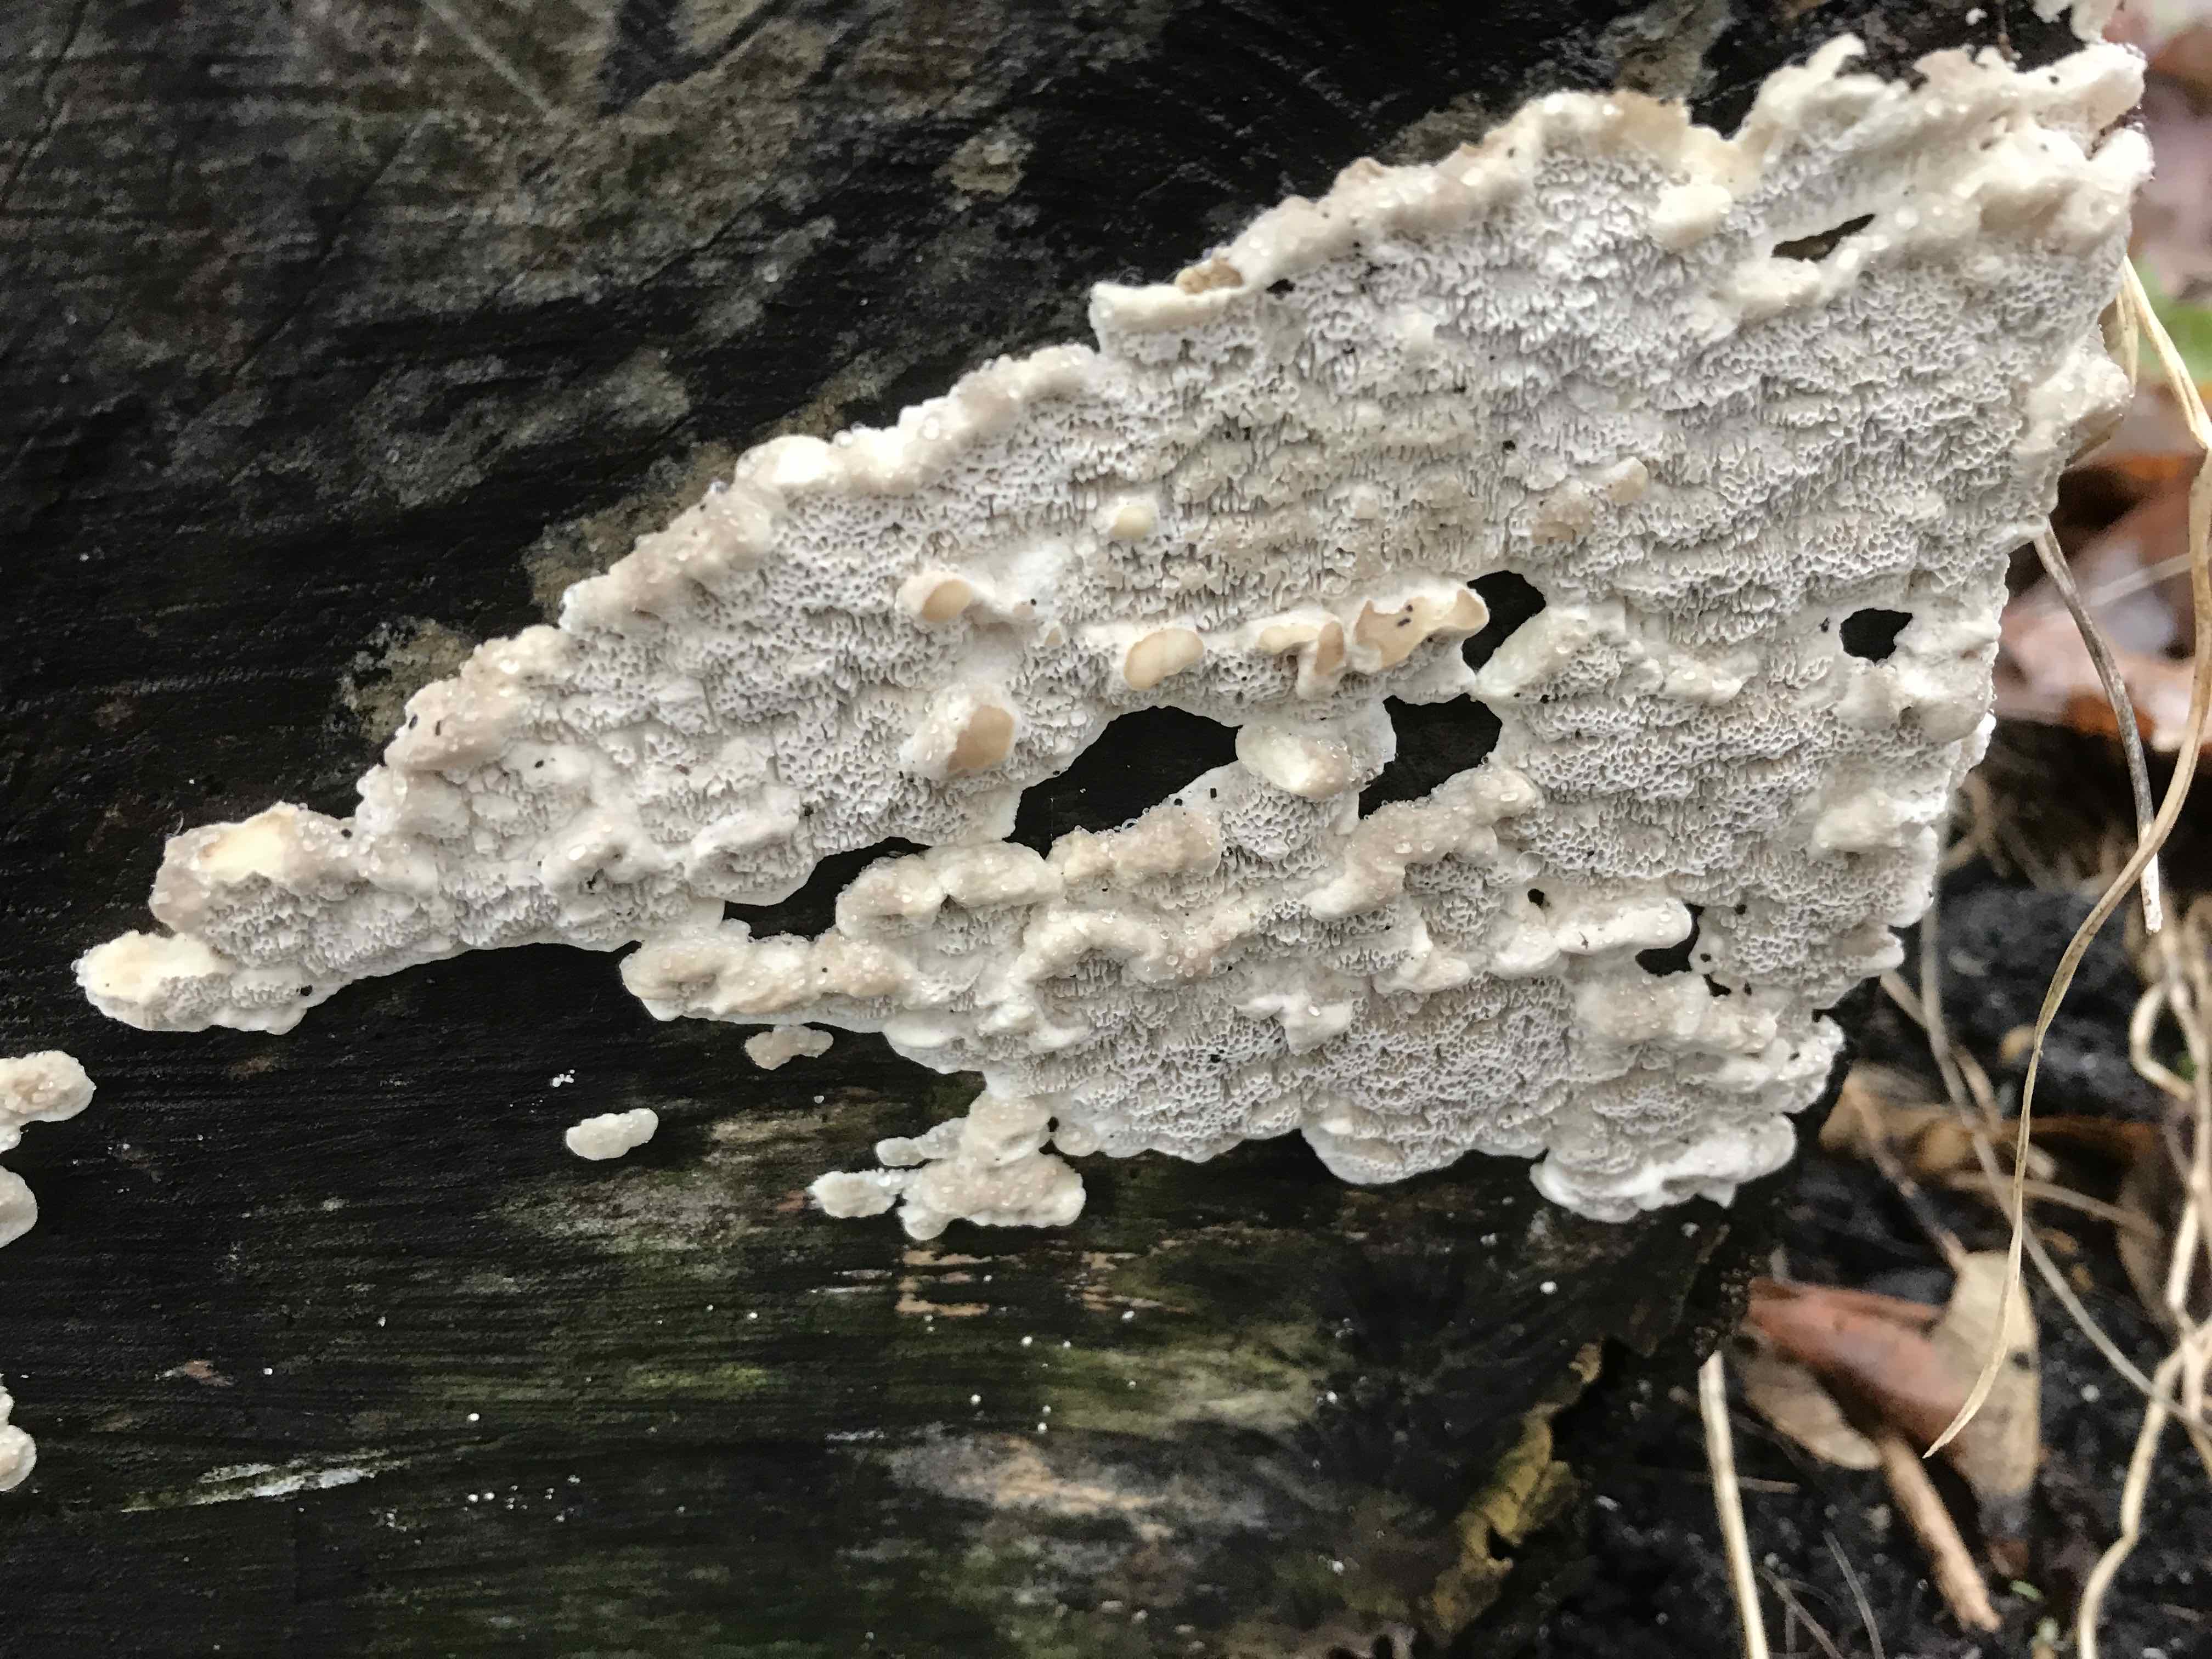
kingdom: Fungi
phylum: Basidiomycota
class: Agaricomycetes
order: Polyporales
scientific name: Polyporales
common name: poresvampordenen
